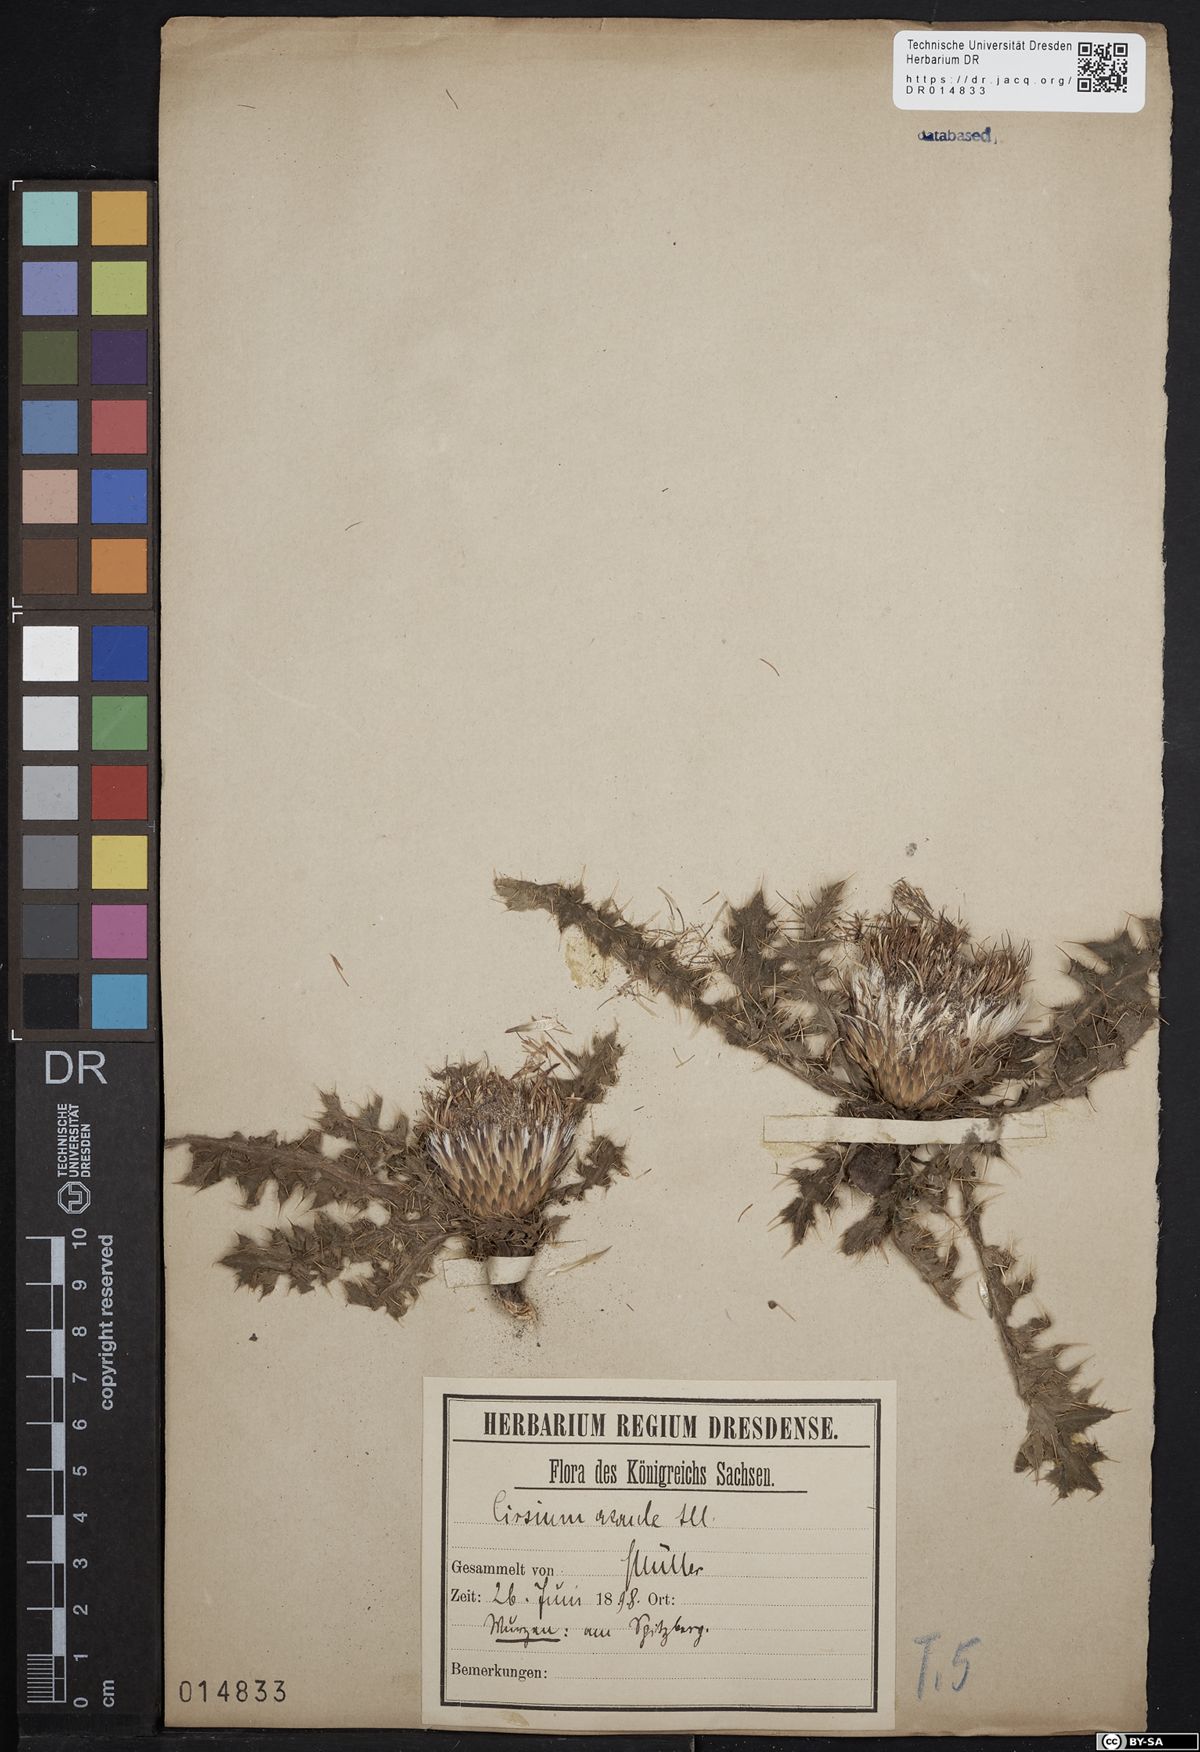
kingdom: Plantae
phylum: Tracheophyta
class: Magnoliopsida
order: Asterales
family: Asteraceae
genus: Cirsium
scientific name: Cirsium acaule
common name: Dwarf thistle
